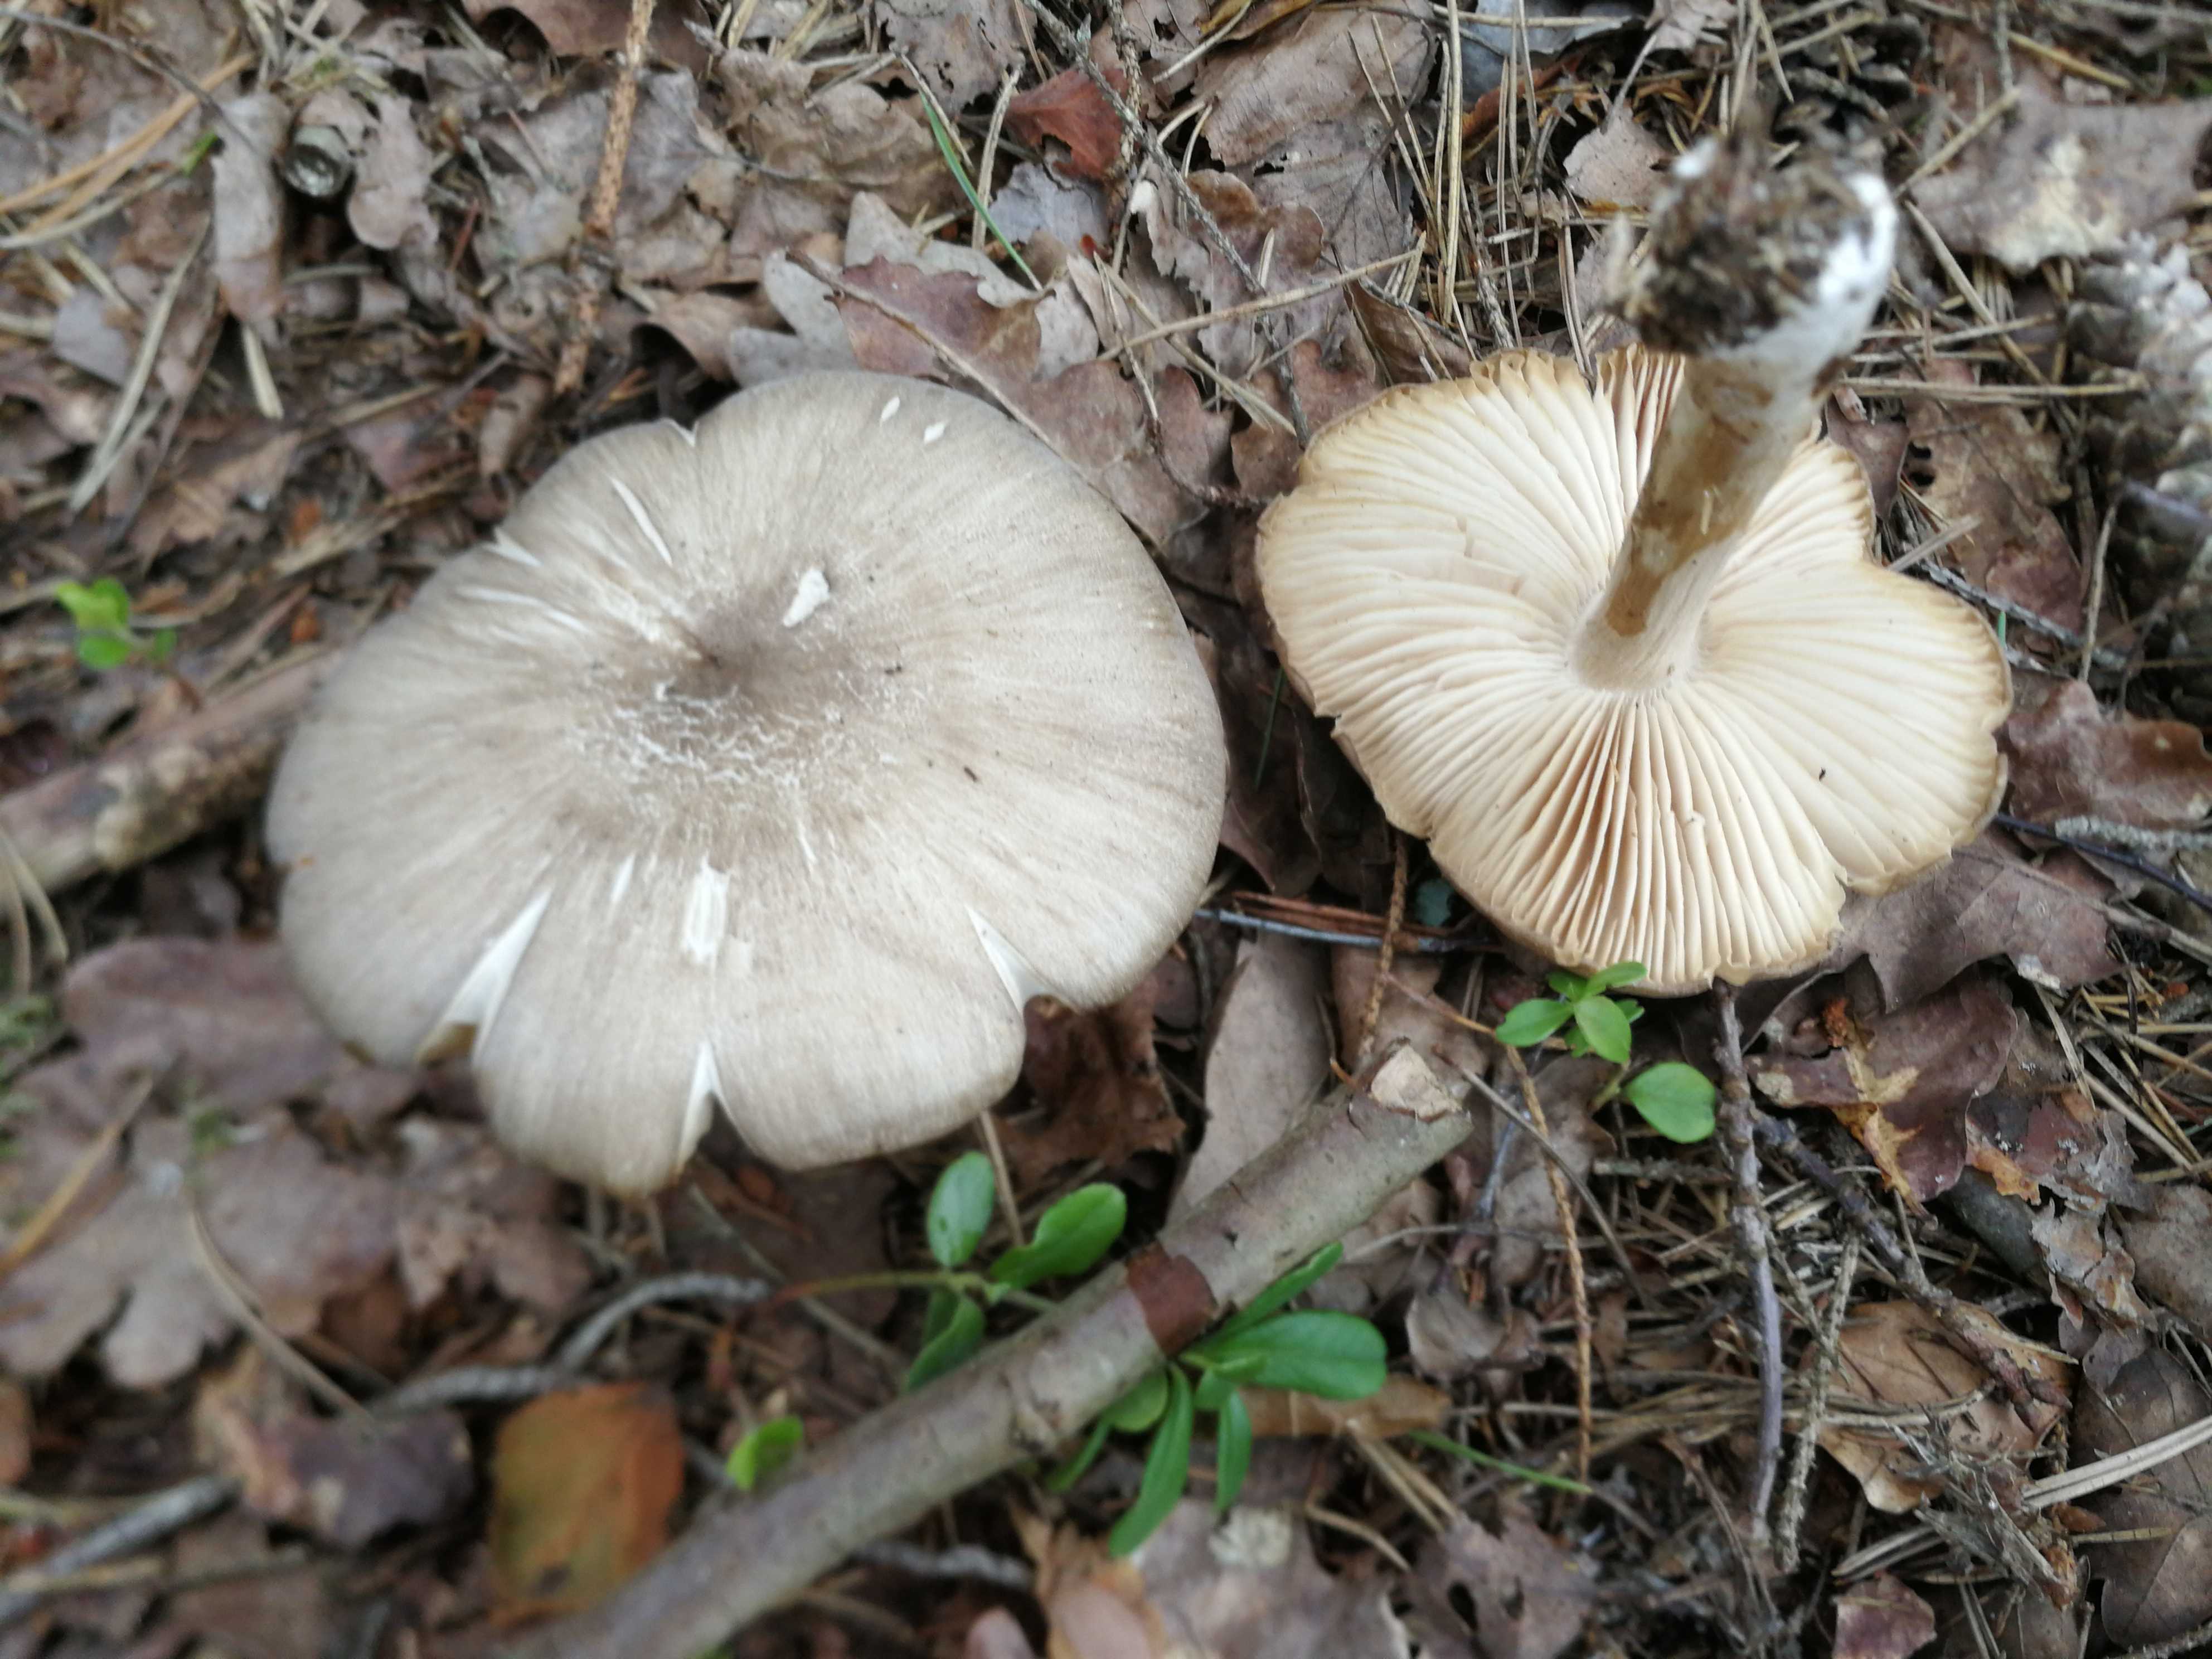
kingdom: Fungi
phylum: Basidiomycota
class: Agaricomycetes
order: Agaricales
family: Tricholomataceae
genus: Megacollybia
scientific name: Megacollybia platyphylla
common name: bredbladet væbnerhat
